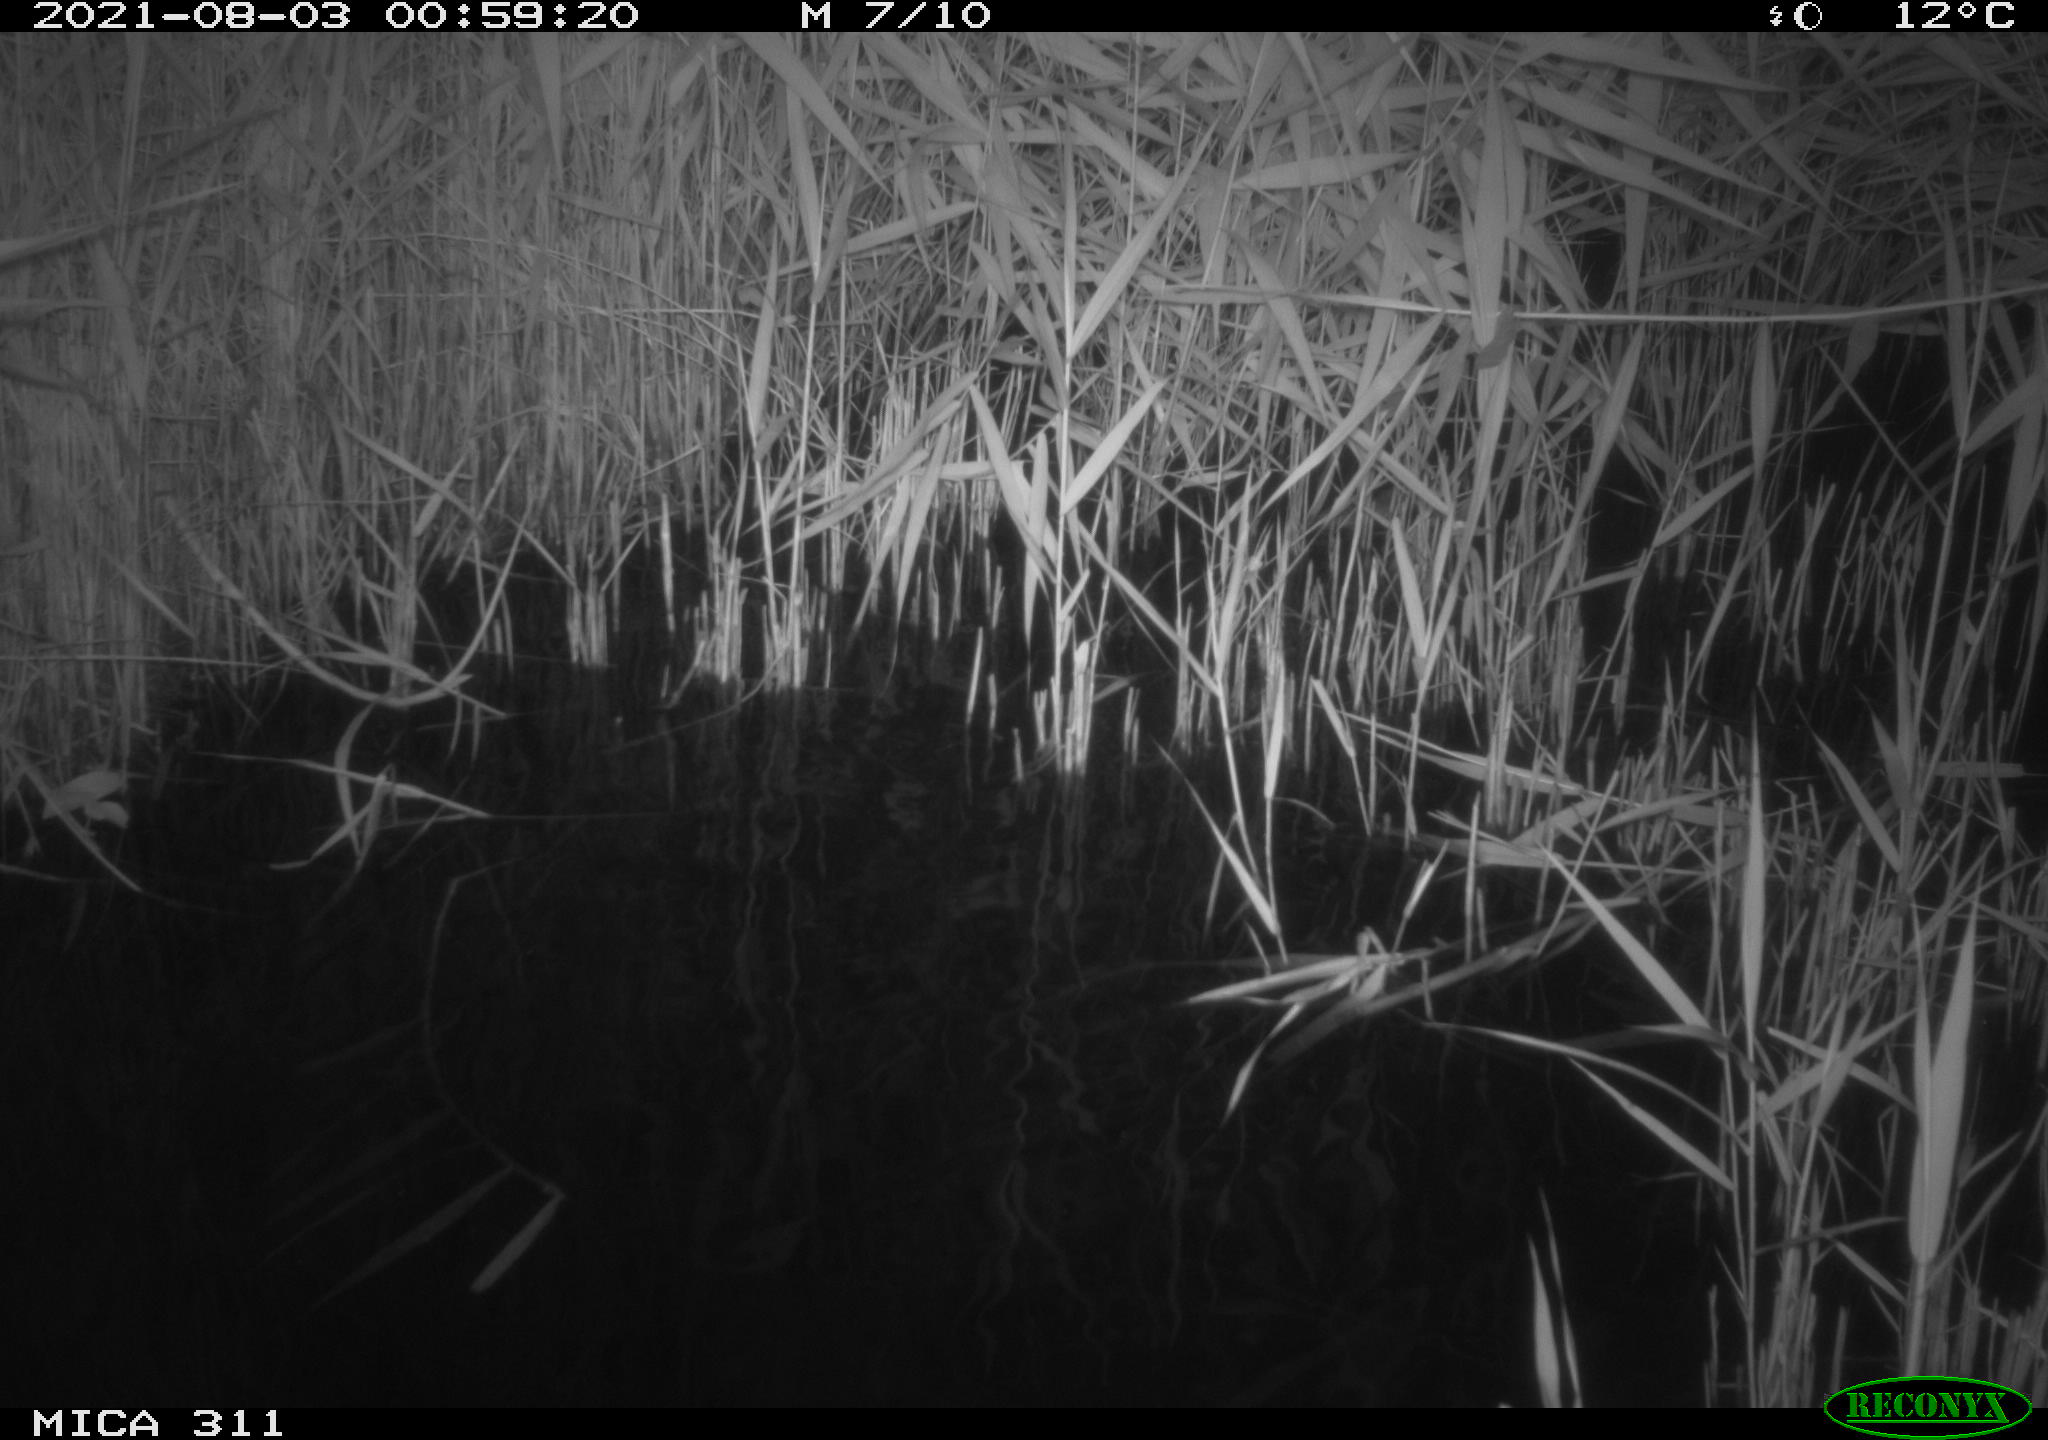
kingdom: Animalia
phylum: Chordata
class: Mammalia
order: Rodentia
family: Muridae
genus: Rattus
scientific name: Rattus norvegicus
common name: Brown rat
